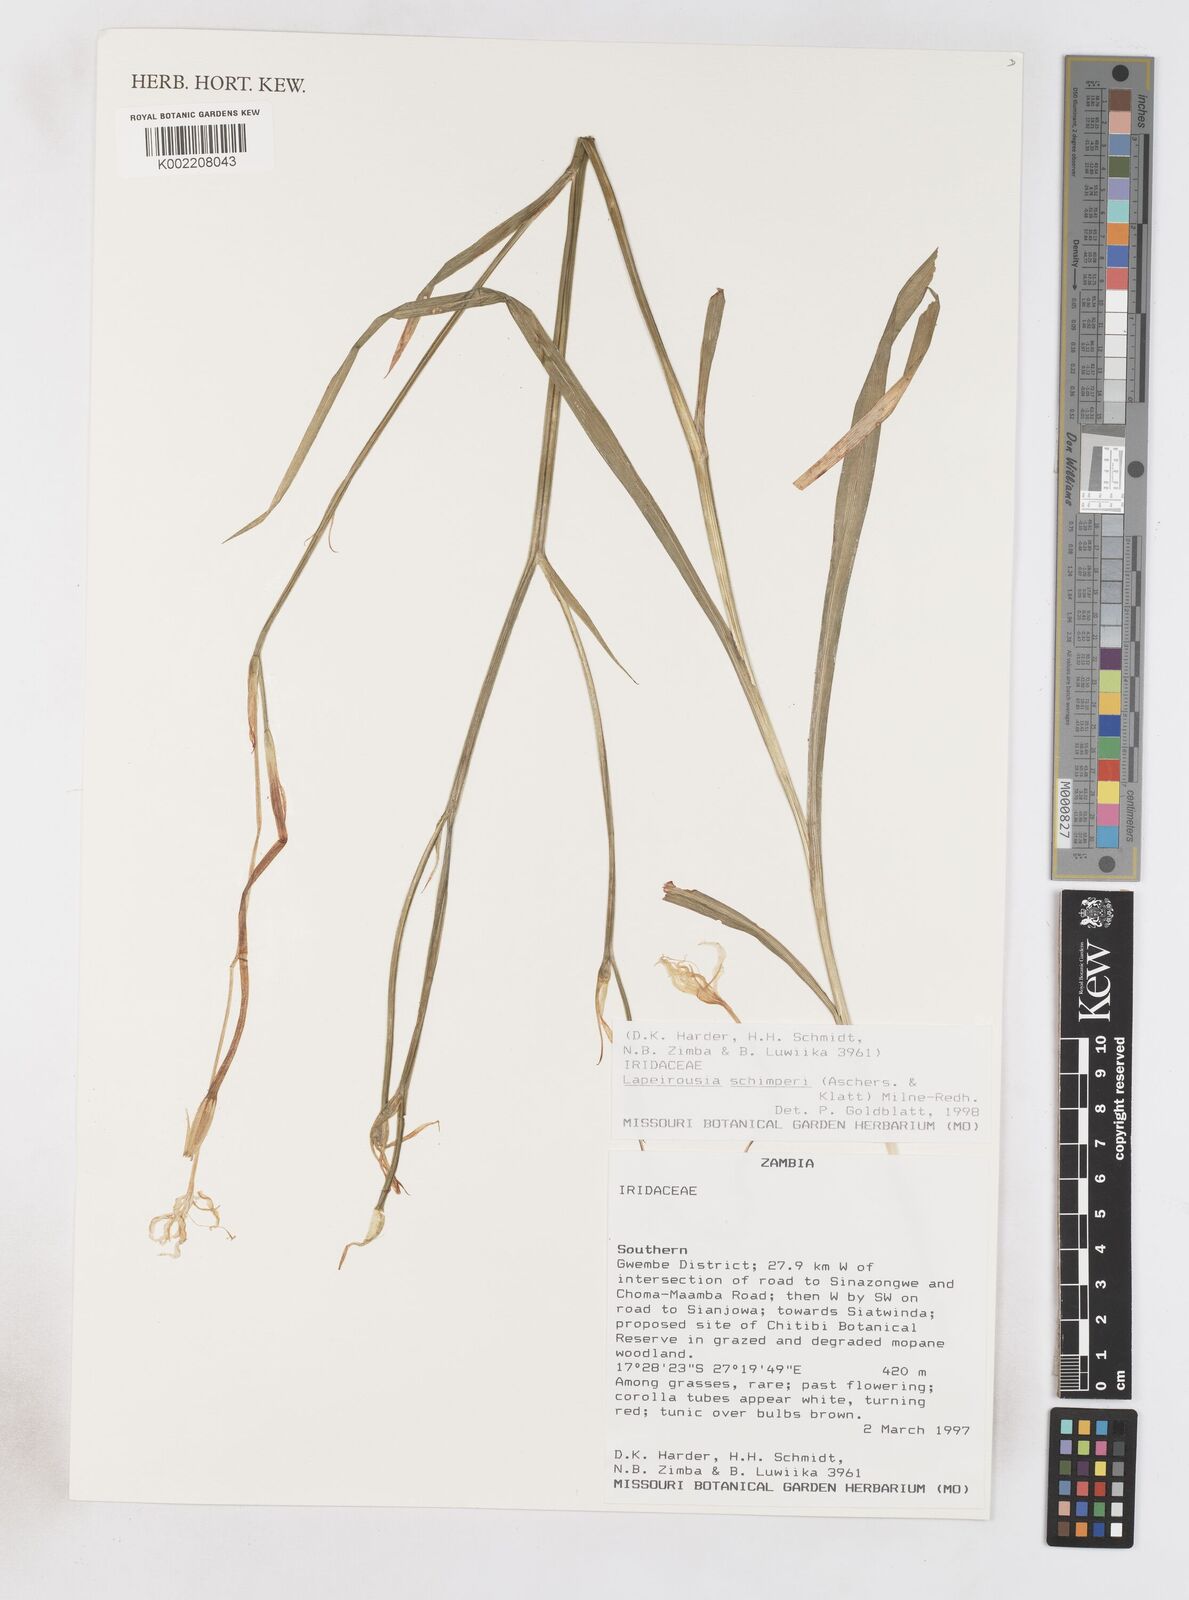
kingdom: Plantae
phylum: Tracheophyta
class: Liliopsida
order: Asparagales
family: Iridaceae
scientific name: Iridaceae
